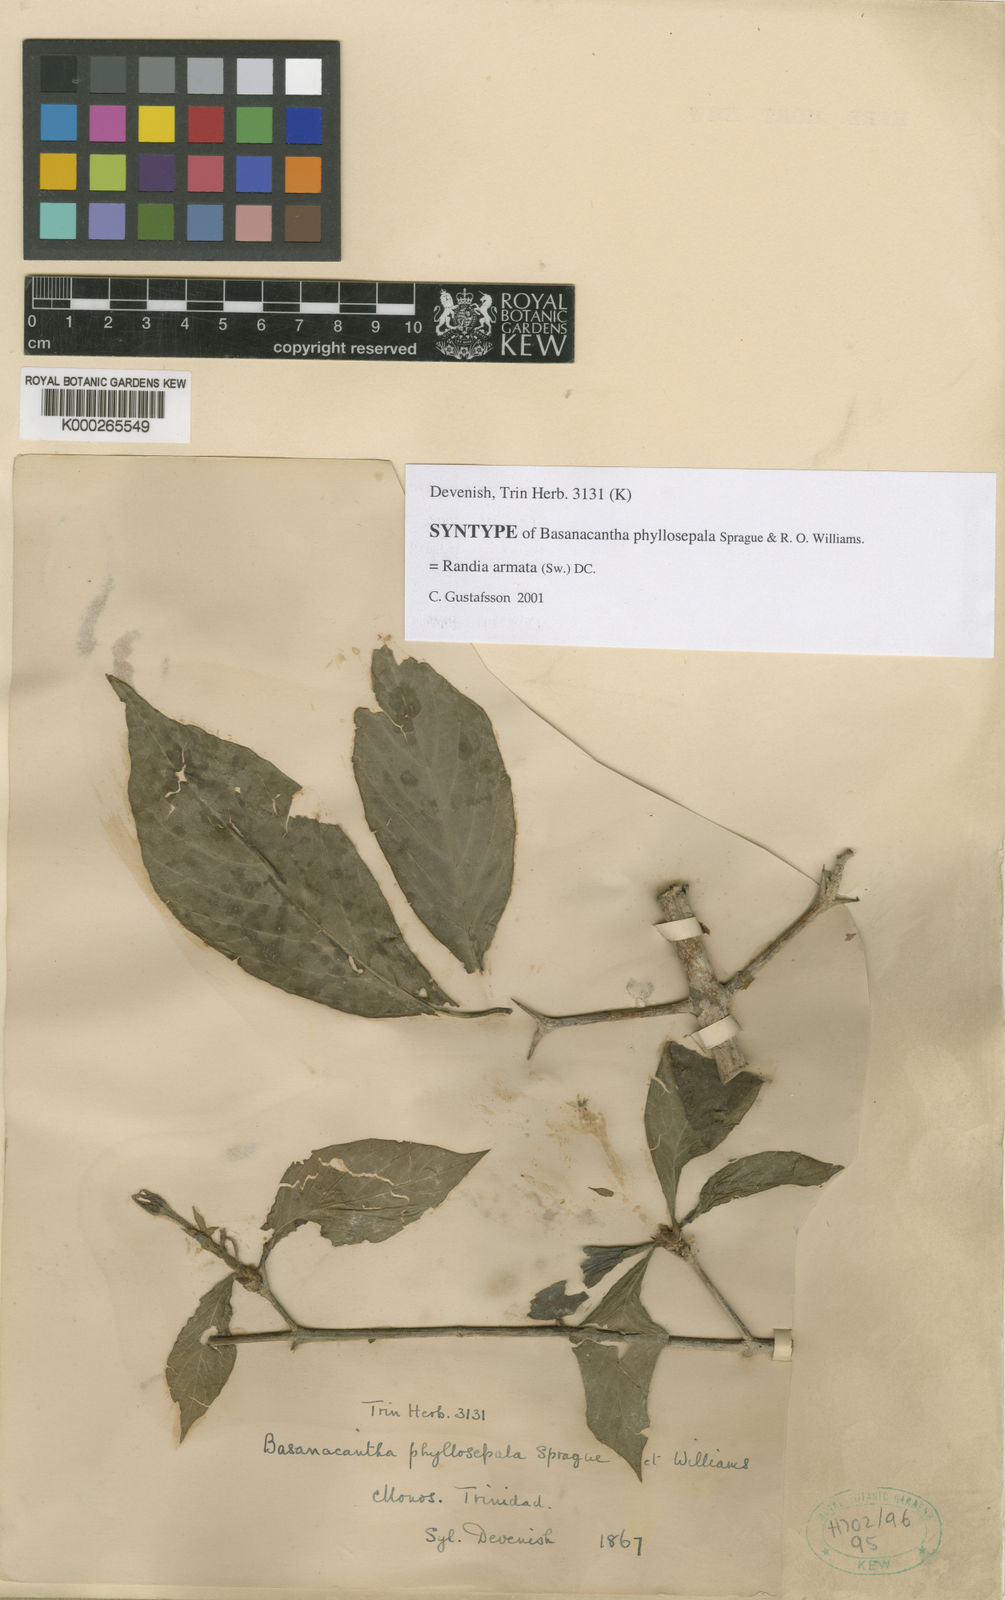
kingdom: Plantae
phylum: Tracheophyta
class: Magnoliopsida
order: Gentianales
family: Rubiaceae
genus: Randia
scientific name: Randia armata
